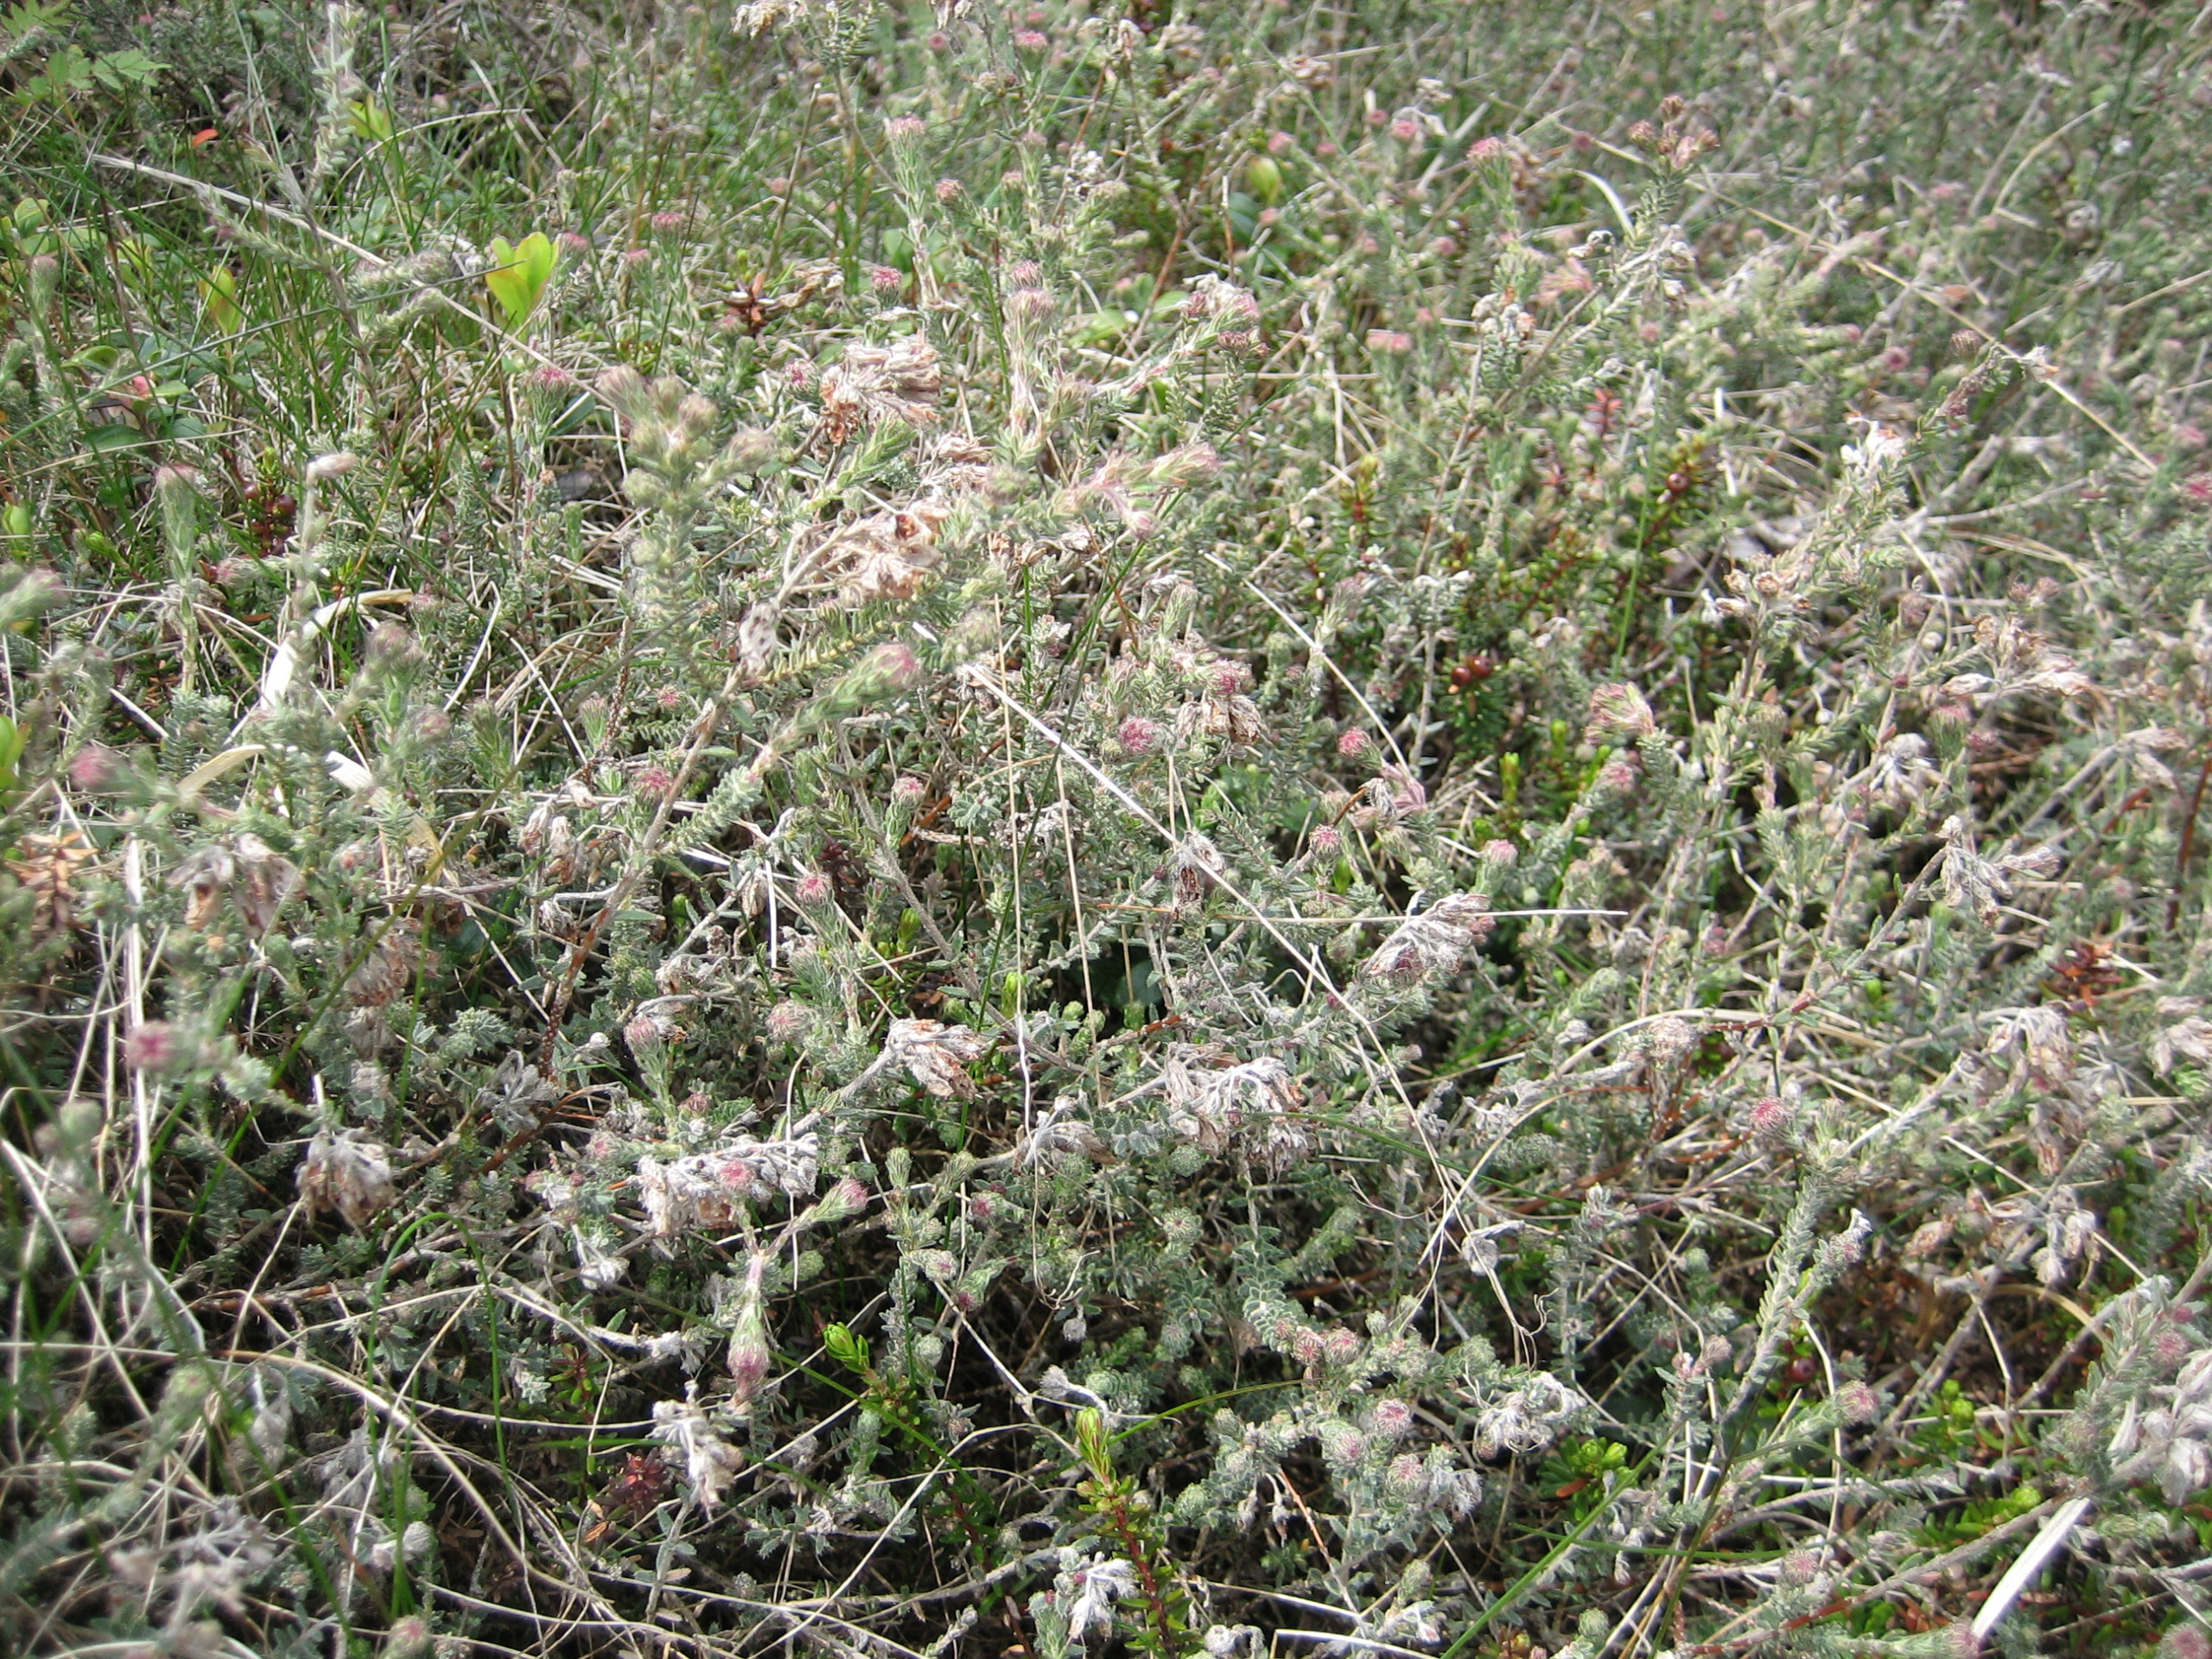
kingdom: Plantae
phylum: Tracheophyta
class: Magnoliopsida
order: Ericales
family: Ericaceae
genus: Erica
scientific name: Erica tetralix
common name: Klokkelyng
